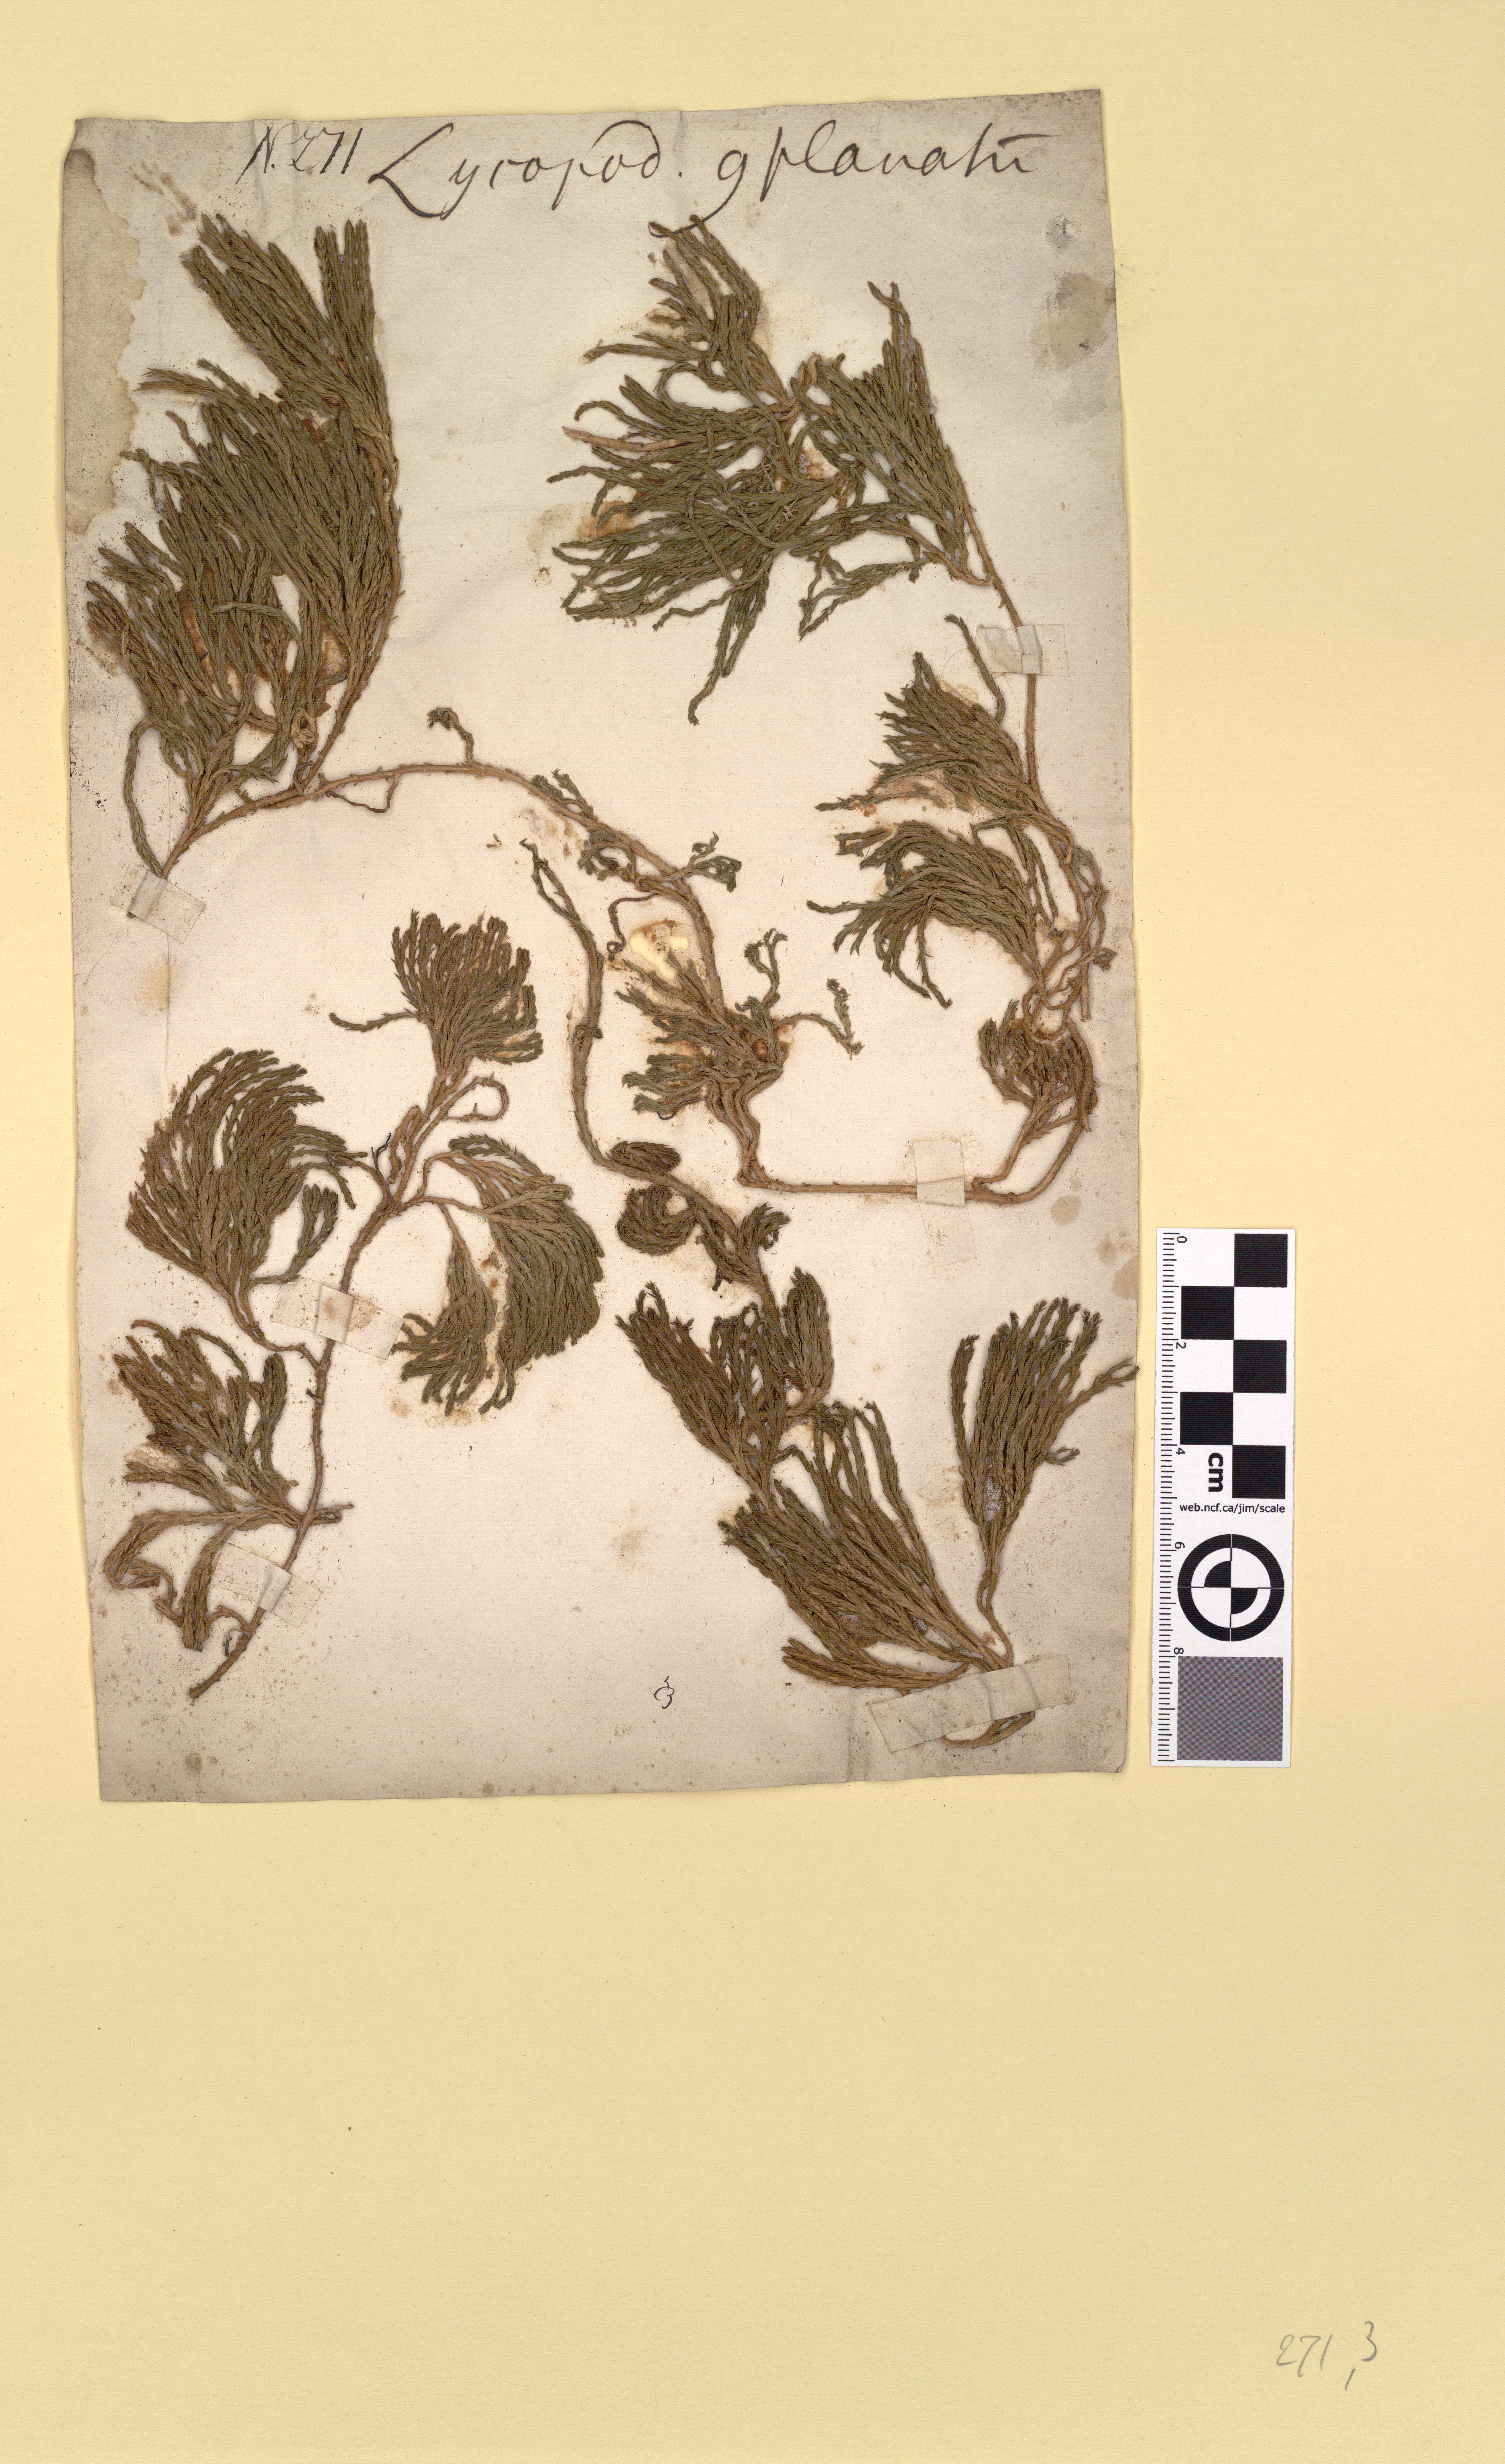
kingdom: Plantae
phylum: Tracheophyta
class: Lycopodiopsida
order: Lycopodiales
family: Lycopodiaceae
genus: Diphasiastrum
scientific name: Diphasiastrum alpinum
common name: Alpine clubmoss
